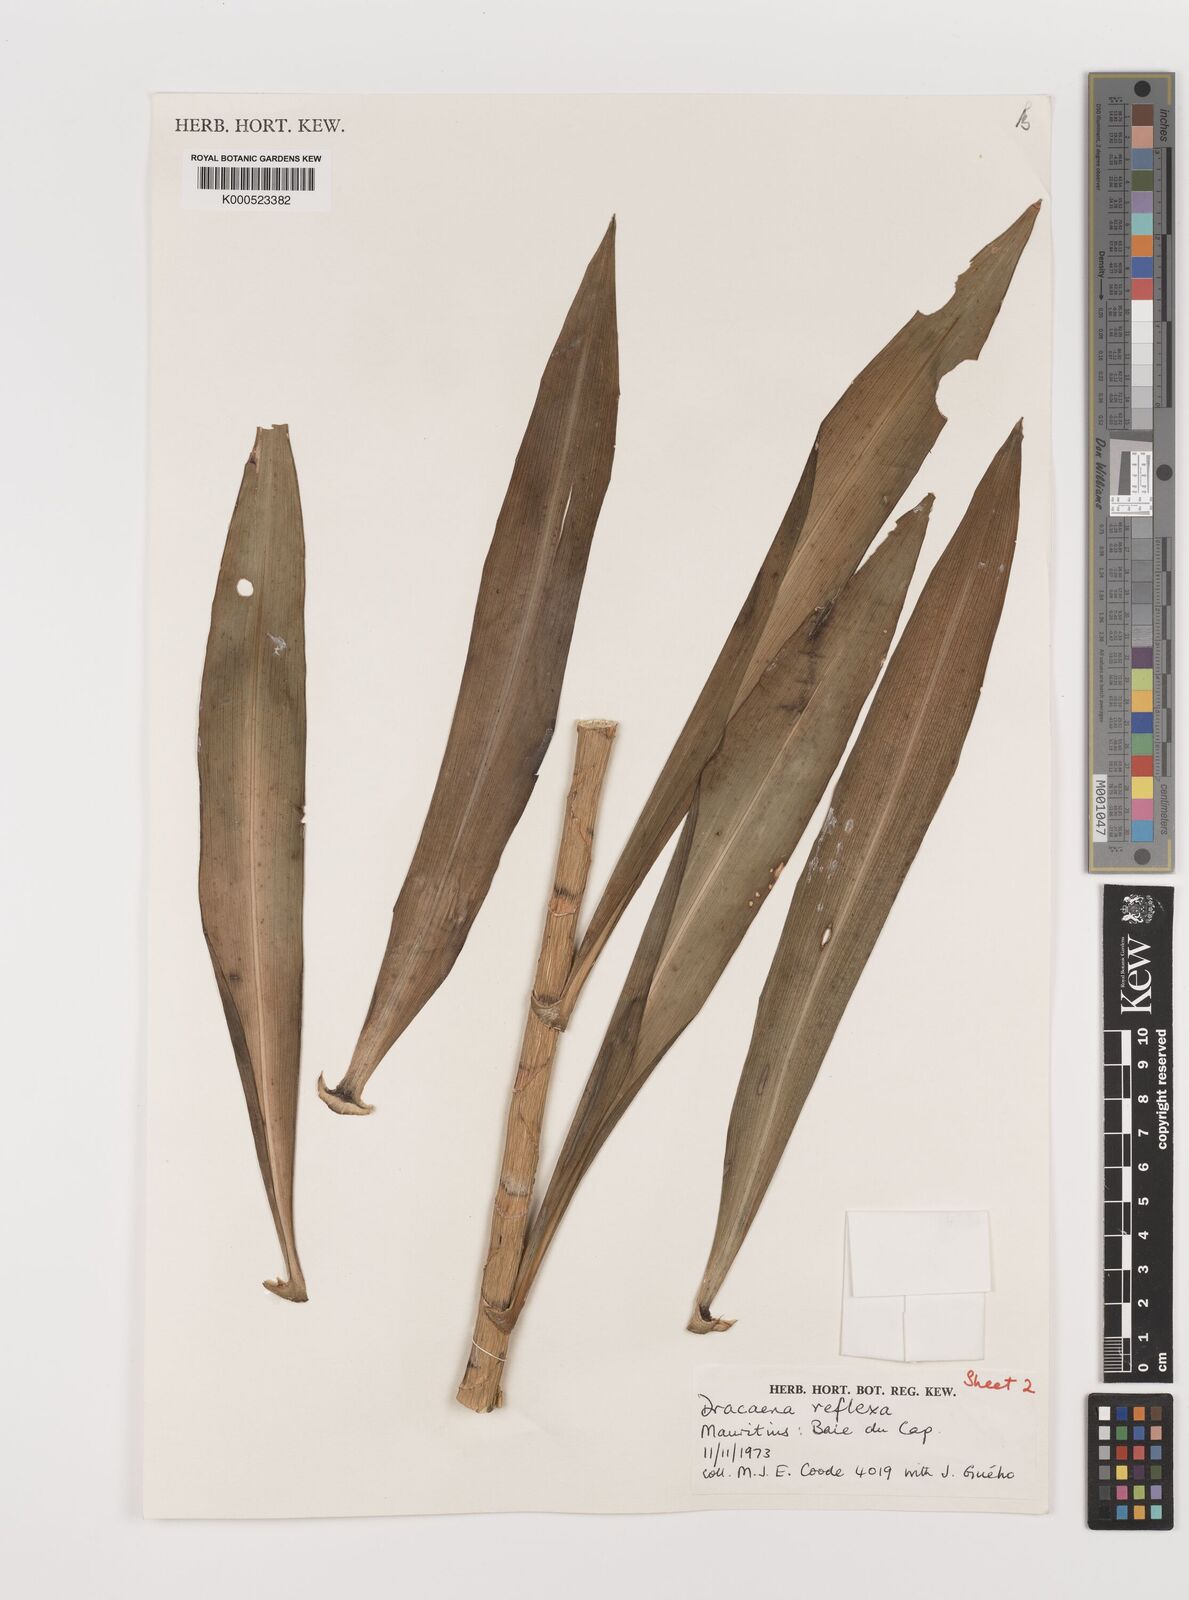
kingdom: Plantae
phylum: Tracheophyta
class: Liliopsida
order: Asparagales
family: Asparagaceae
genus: Dracaena
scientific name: Dracaena reflexa
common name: Song-of-india
